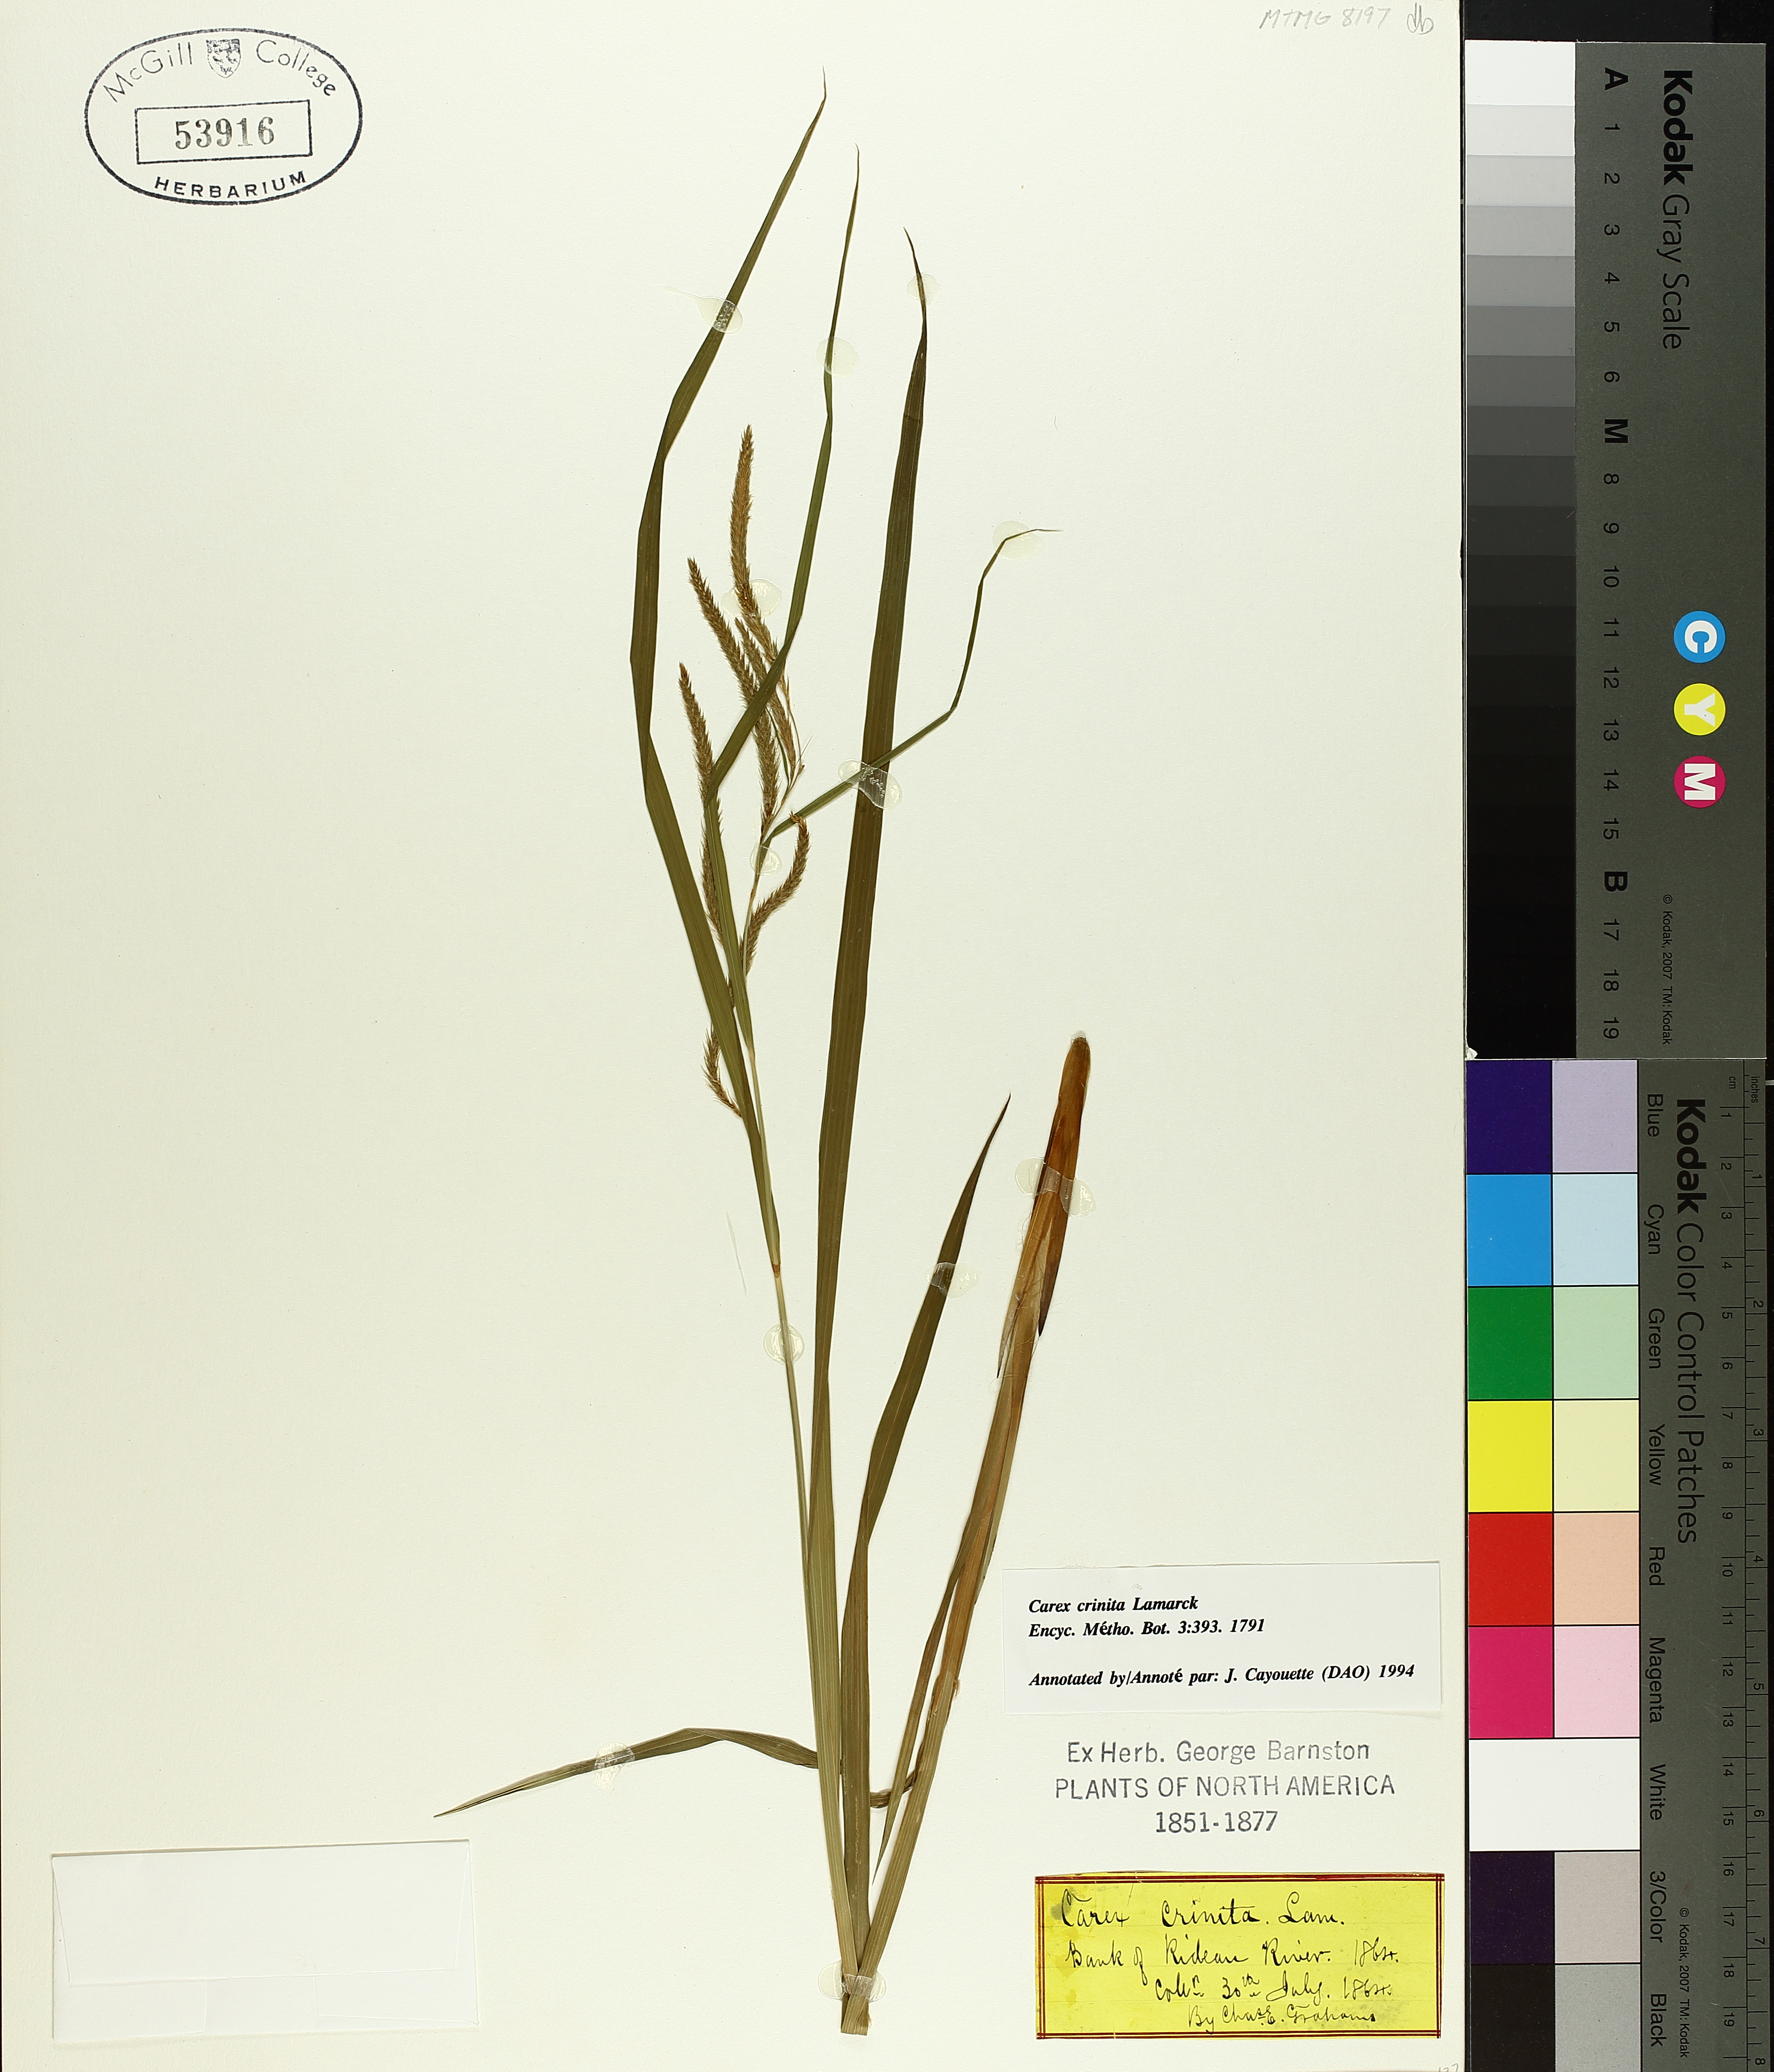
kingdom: Plantae
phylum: Tracheophyta
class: Liliopsida
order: Poales
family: Cyperaceae
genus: Carex
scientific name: Carex crinita
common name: Fringed sedge
